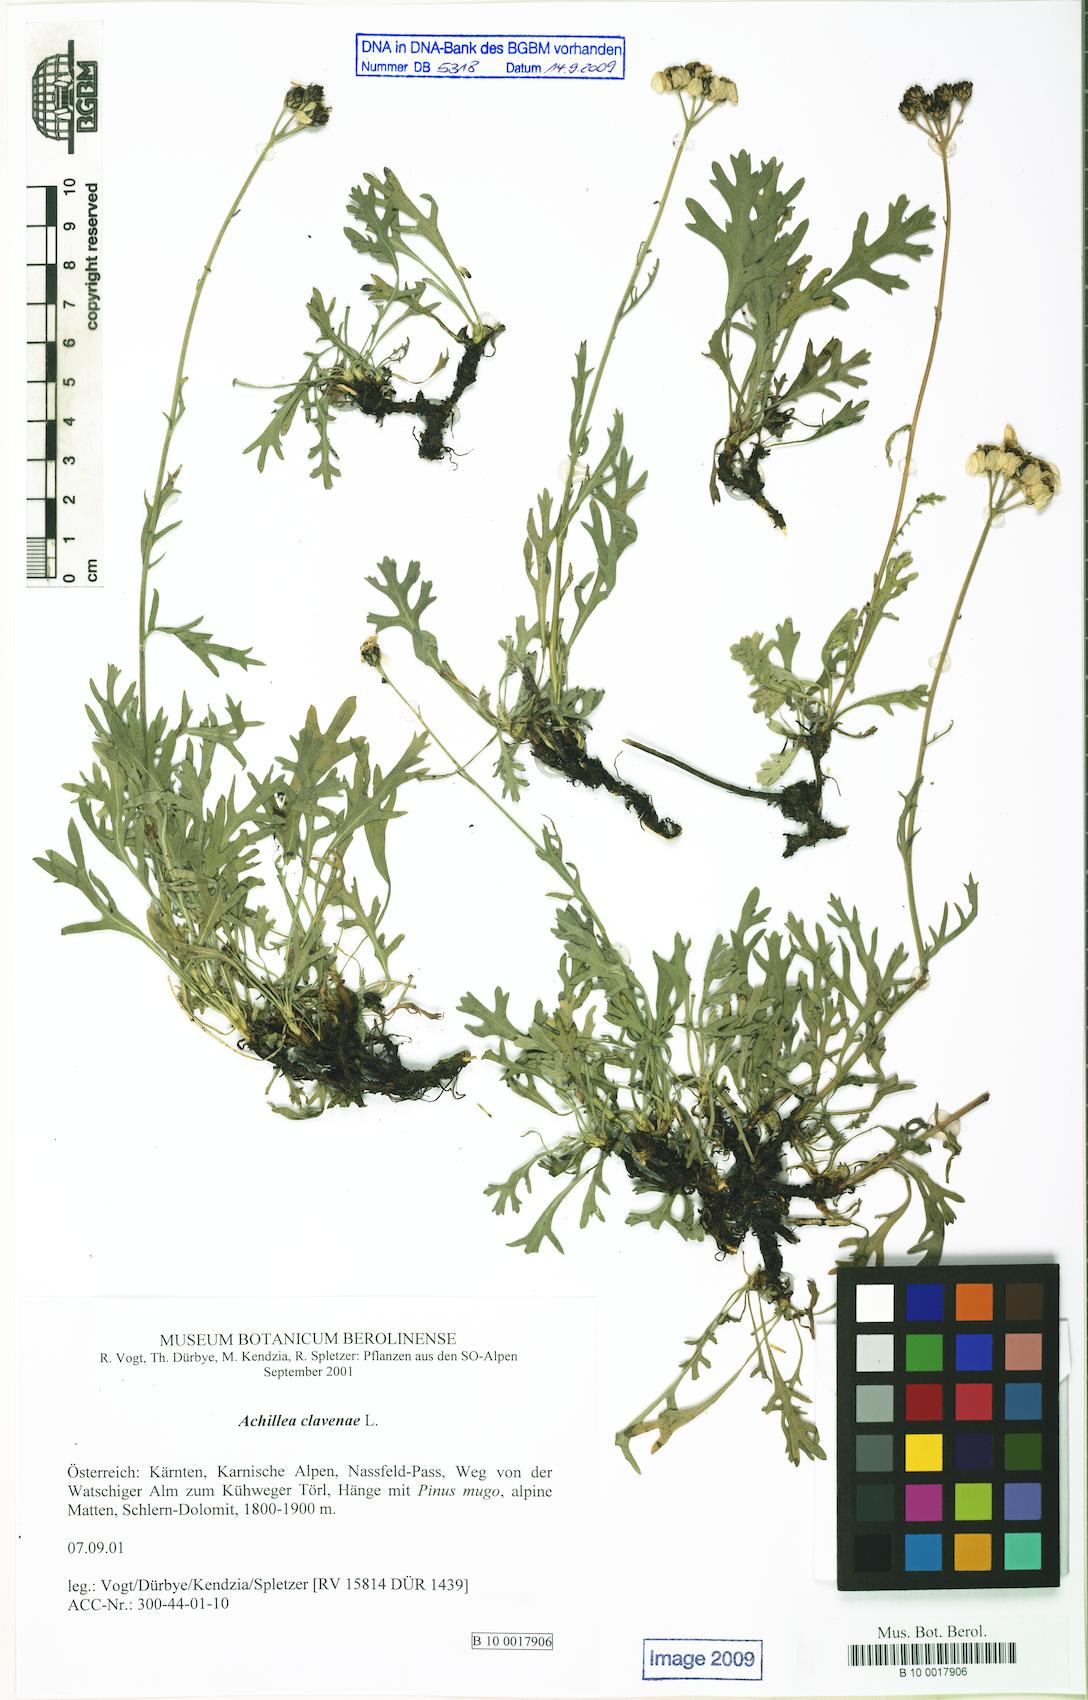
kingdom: Plantae
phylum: Tracheophyta
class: Magnoliopsida
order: Asterales
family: Asteraceae
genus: Achillea
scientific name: Achillea clavennae
